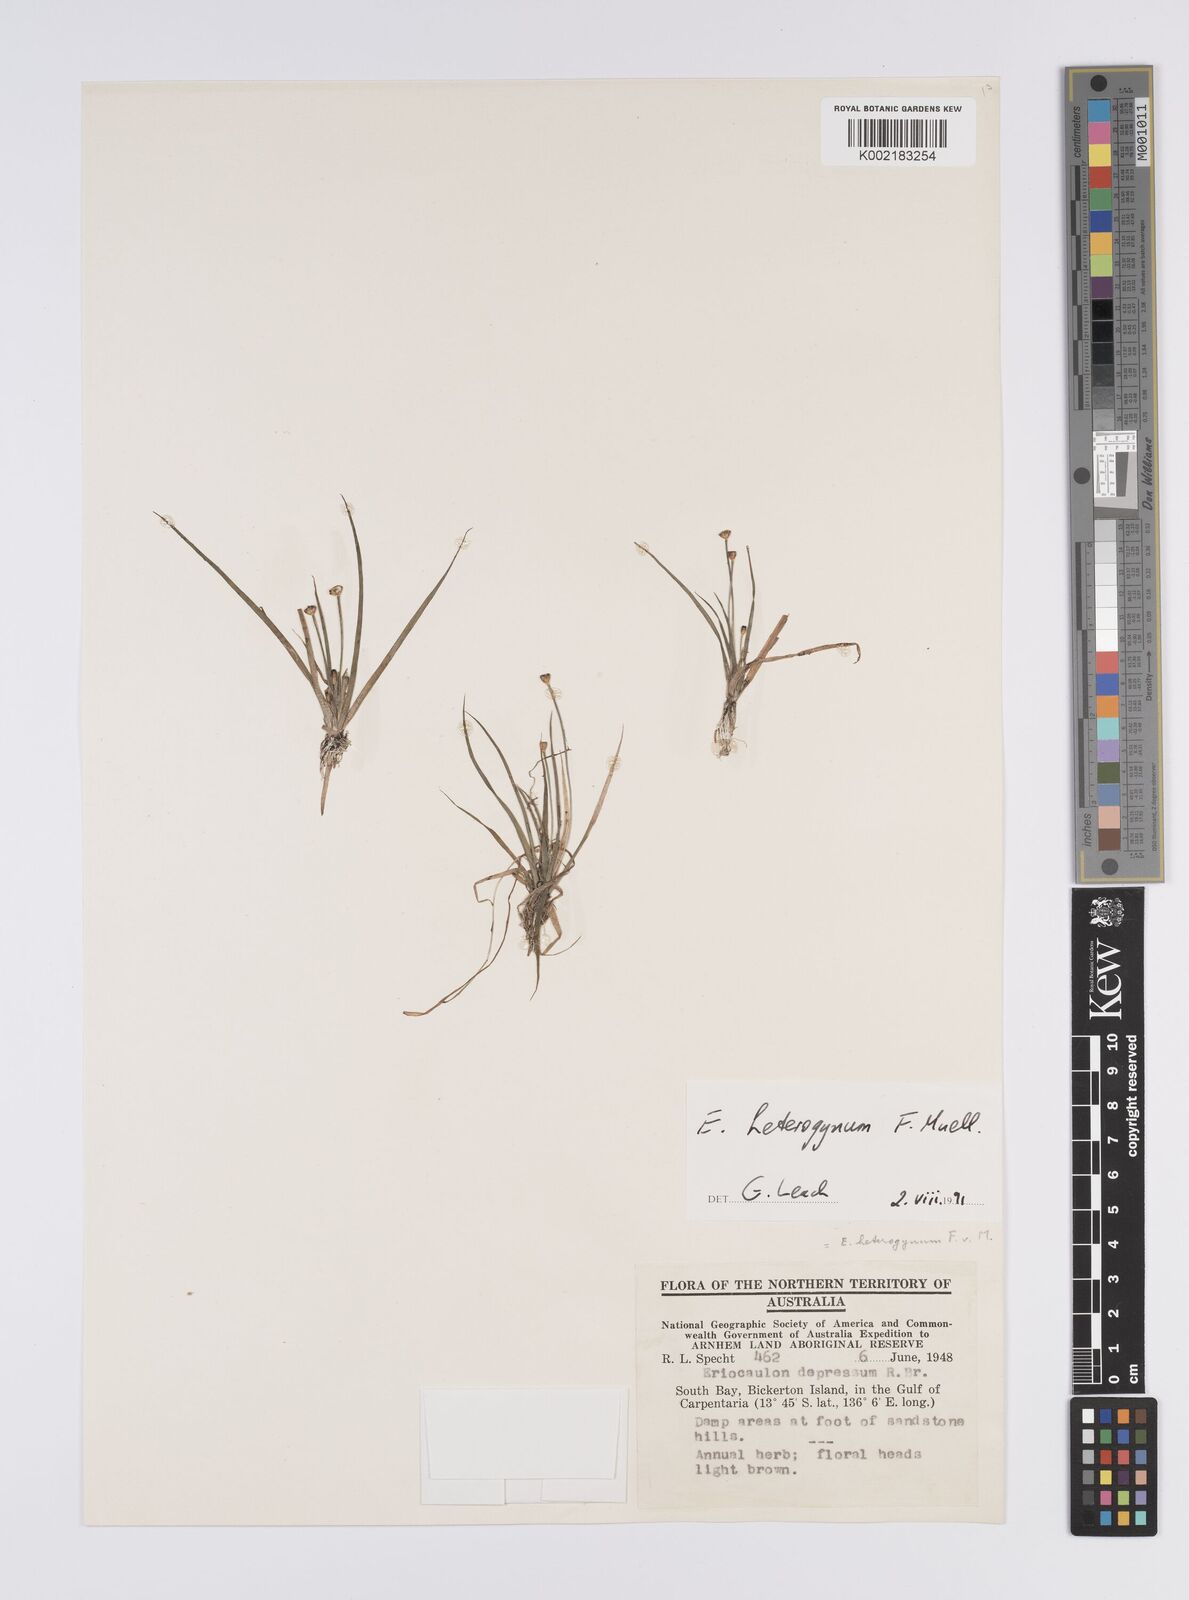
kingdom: Plantae
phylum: Tracheophyta
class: Liliopsida
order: Poales
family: Eriocaulaceae
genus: Eriocaulon
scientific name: Eriocaulon depressum
